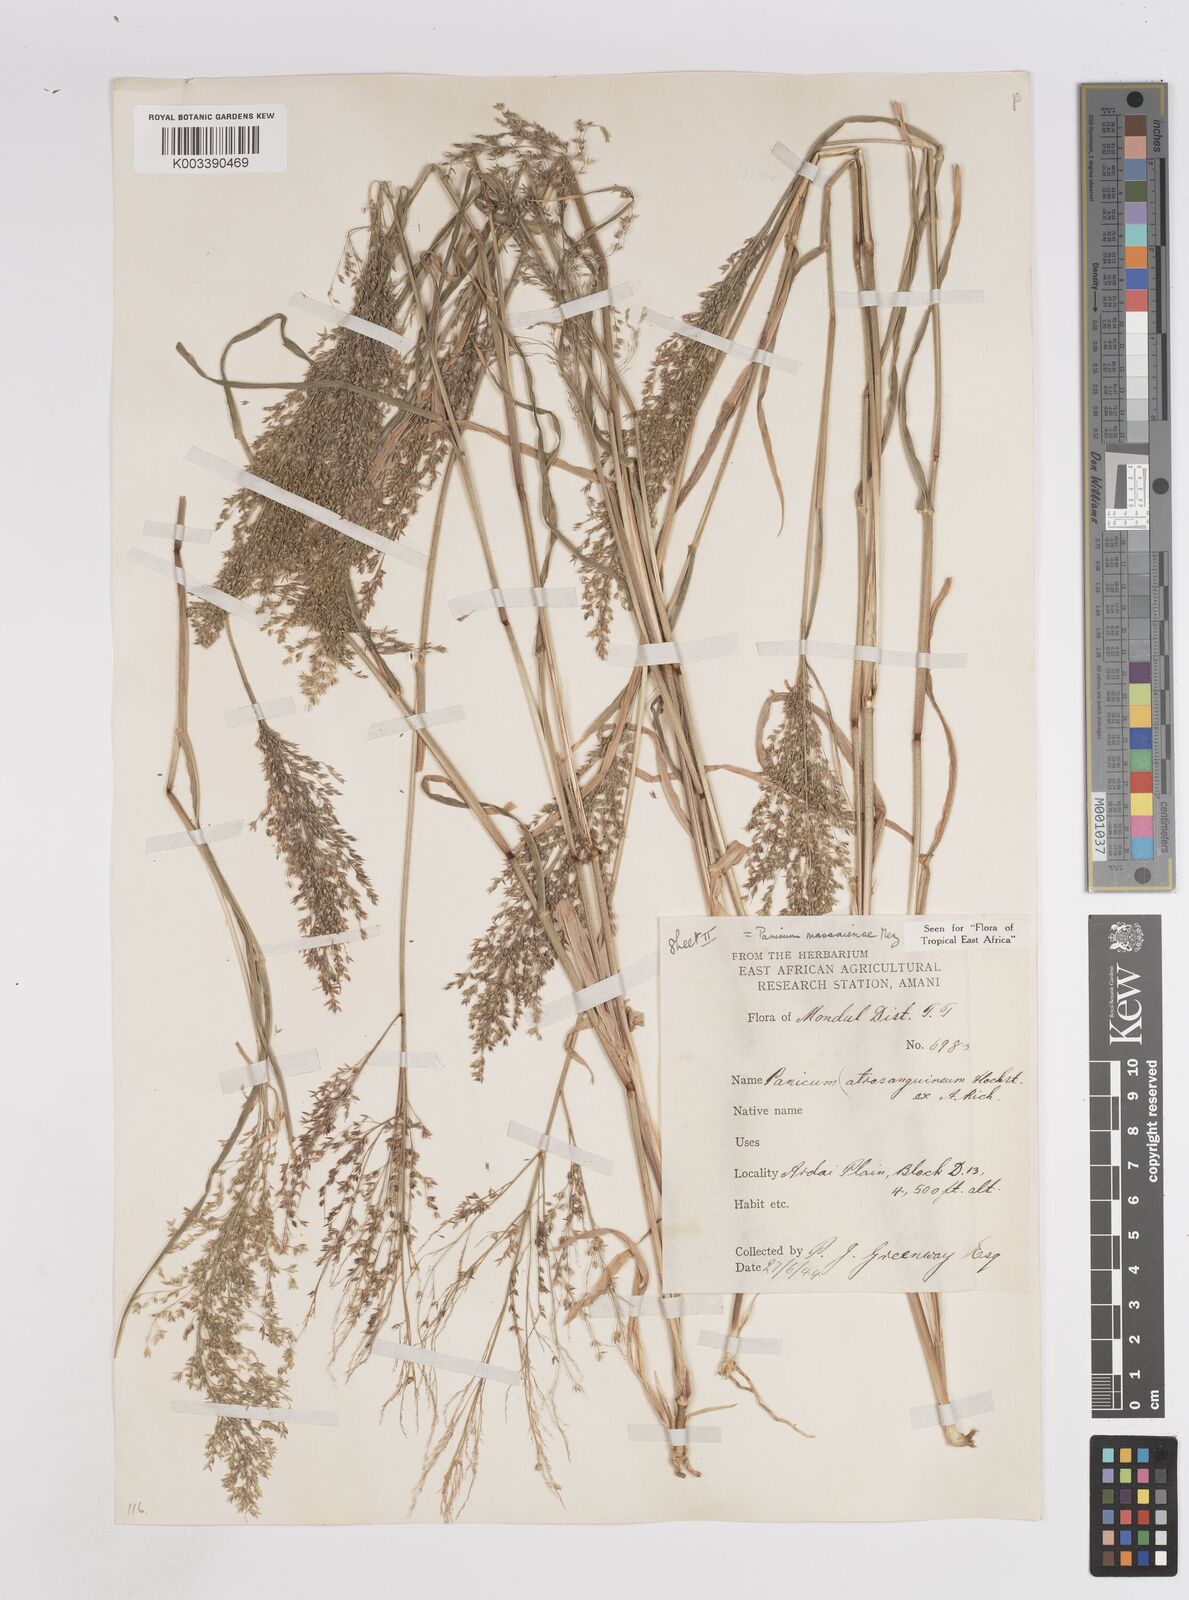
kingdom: Plantae
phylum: Tracheophyta
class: Liliopsida
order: Poales
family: Poaceae
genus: Panicum
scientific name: Panicum massaiense
